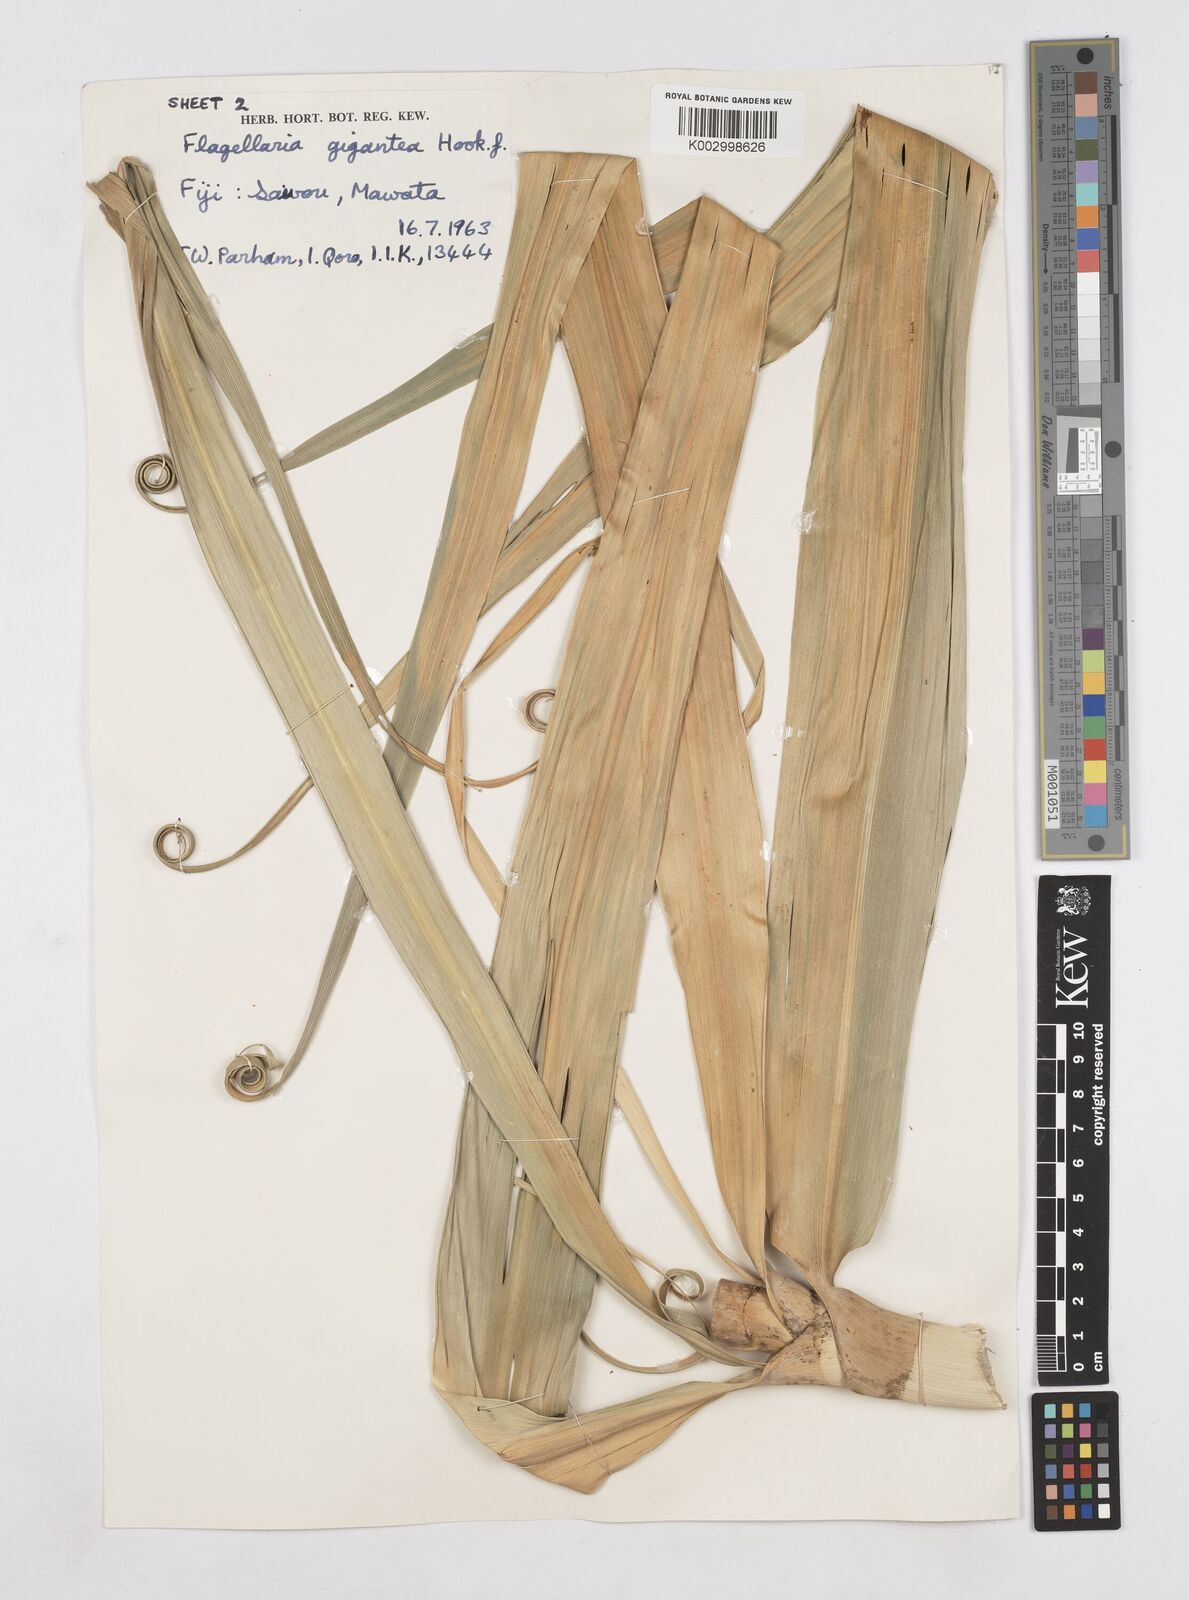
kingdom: Plantae
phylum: Tracheophyta
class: Liliopsida
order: Poales
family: Flagellariaceae
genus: Flagellaria
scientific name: Flagellaria gigantea
